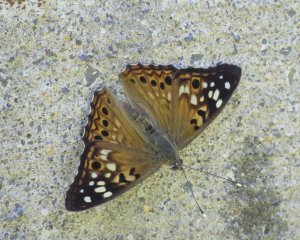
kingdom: Animalia
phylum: Arthropoda
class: Insecta
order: Lepidoptera
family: Nymphalidae
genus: Asterocampa
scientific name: Asterocampa celtis
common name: Hackberry Emperor
